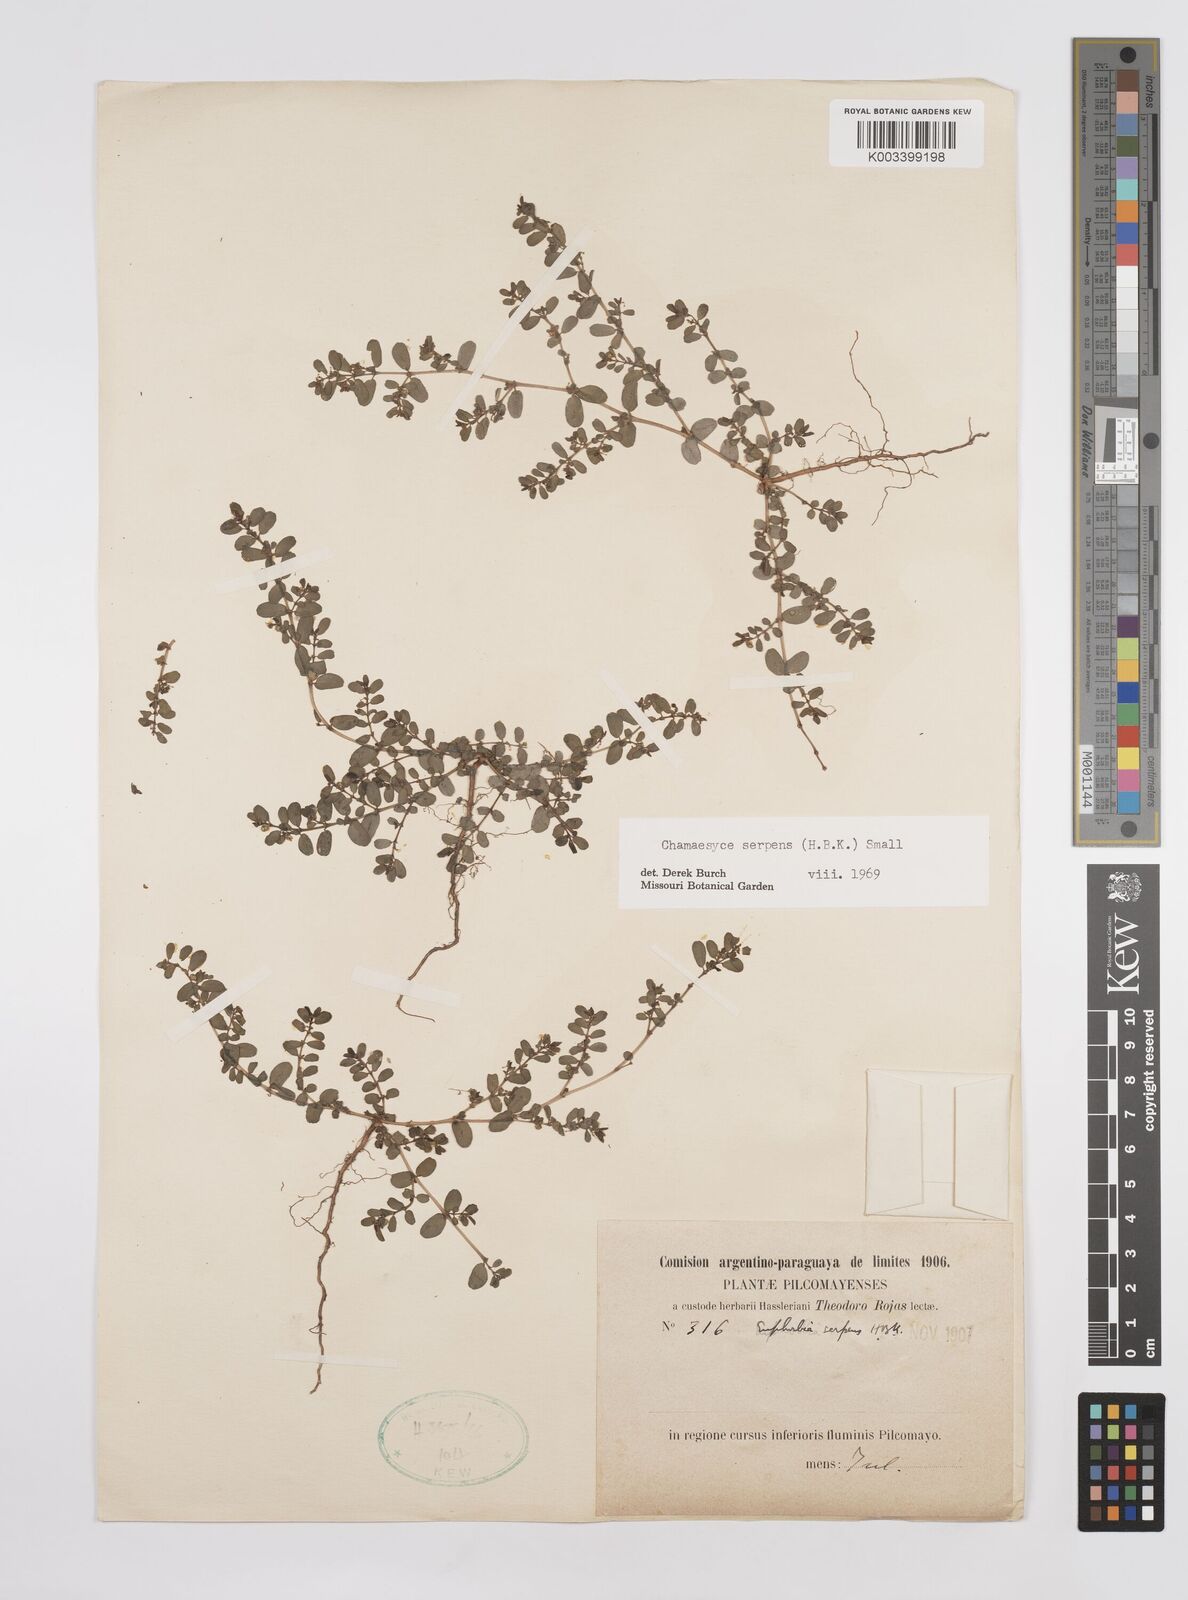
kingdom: Plantae
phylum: Tracheophyta
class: Magnoliopsida
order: Malpighiales
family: Euphorbiaceae
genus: Euphorbia
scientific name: Euphorbia serpens
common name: Matted sandmat
